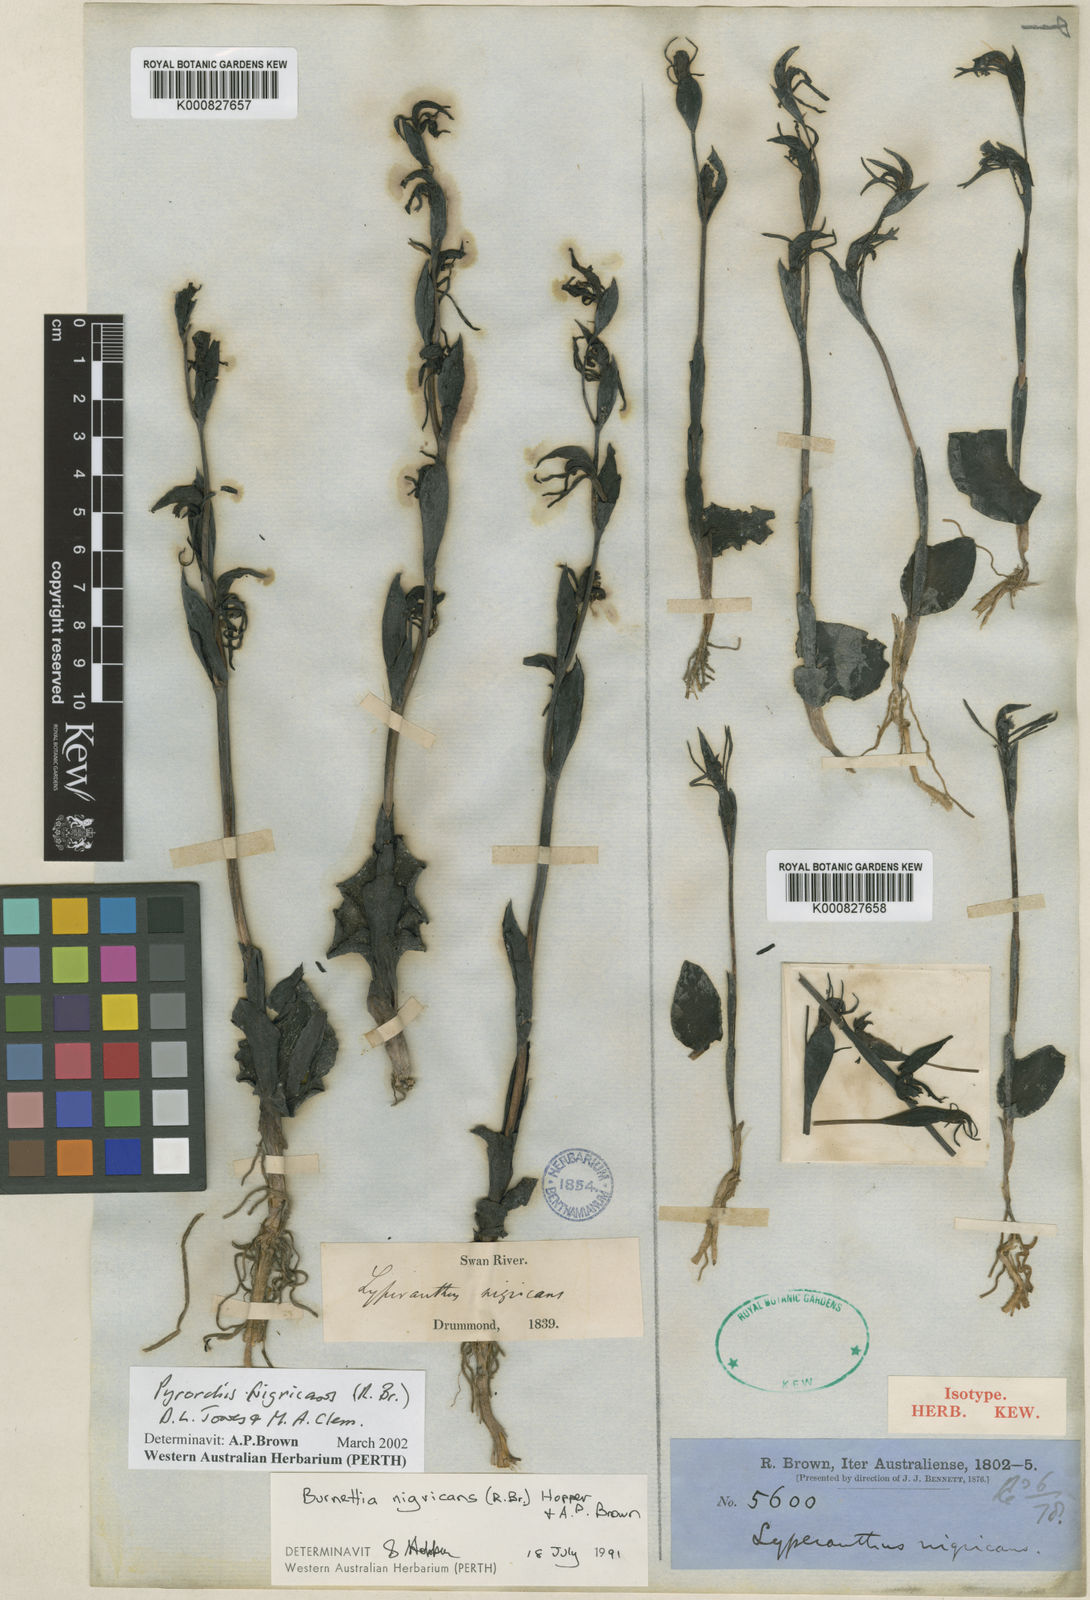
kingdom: Plantae
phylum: Tracheophyta
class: Liliopsida
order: Asparagales
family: Orchidaceae
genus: Pyrorchis
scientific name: Pyrorchis nigricans
